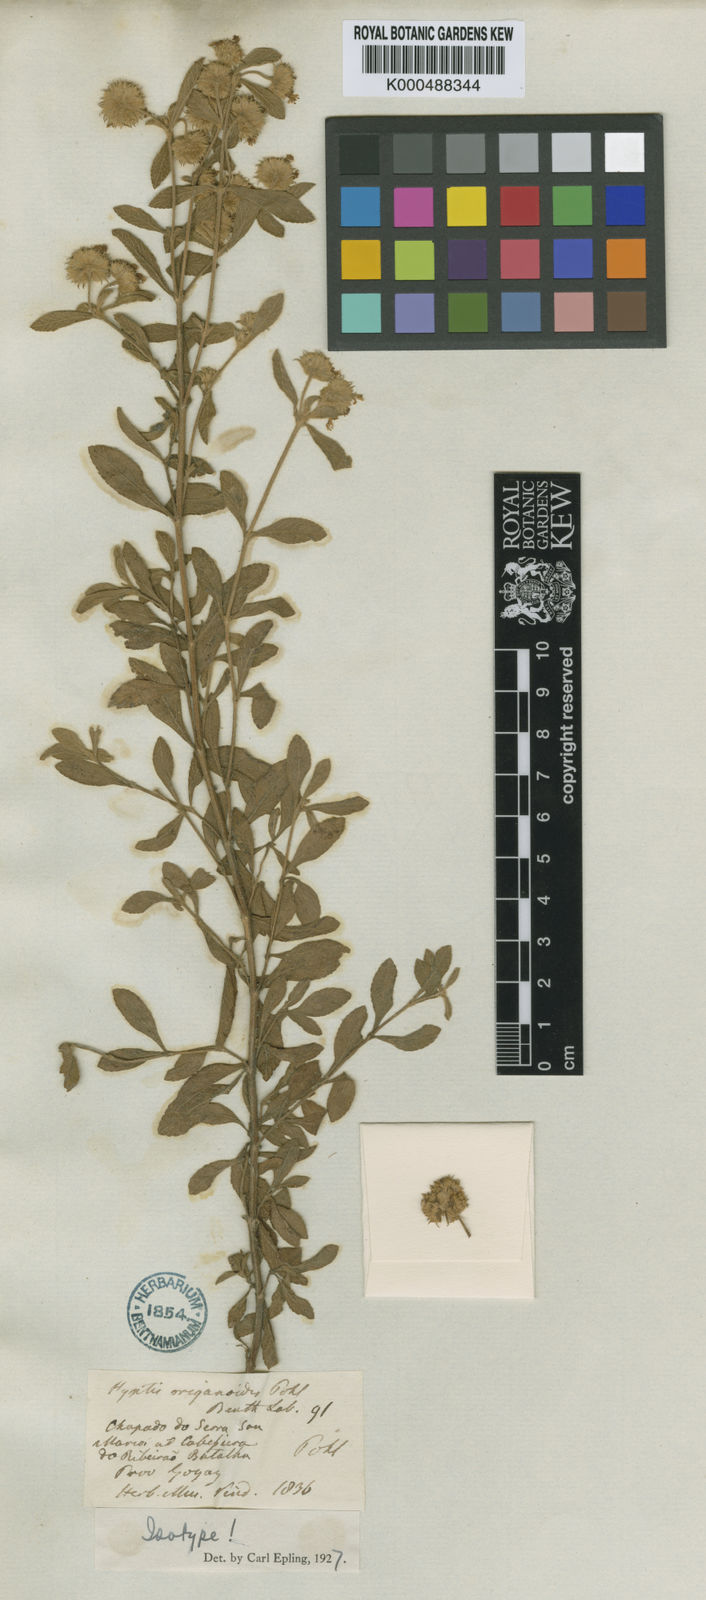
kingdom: Plantae
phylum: Tracheophyta
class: Magnoliopsida
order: Lamiales
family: Lamiaceae
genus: Hyptis
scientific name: Hyptis deminuta
